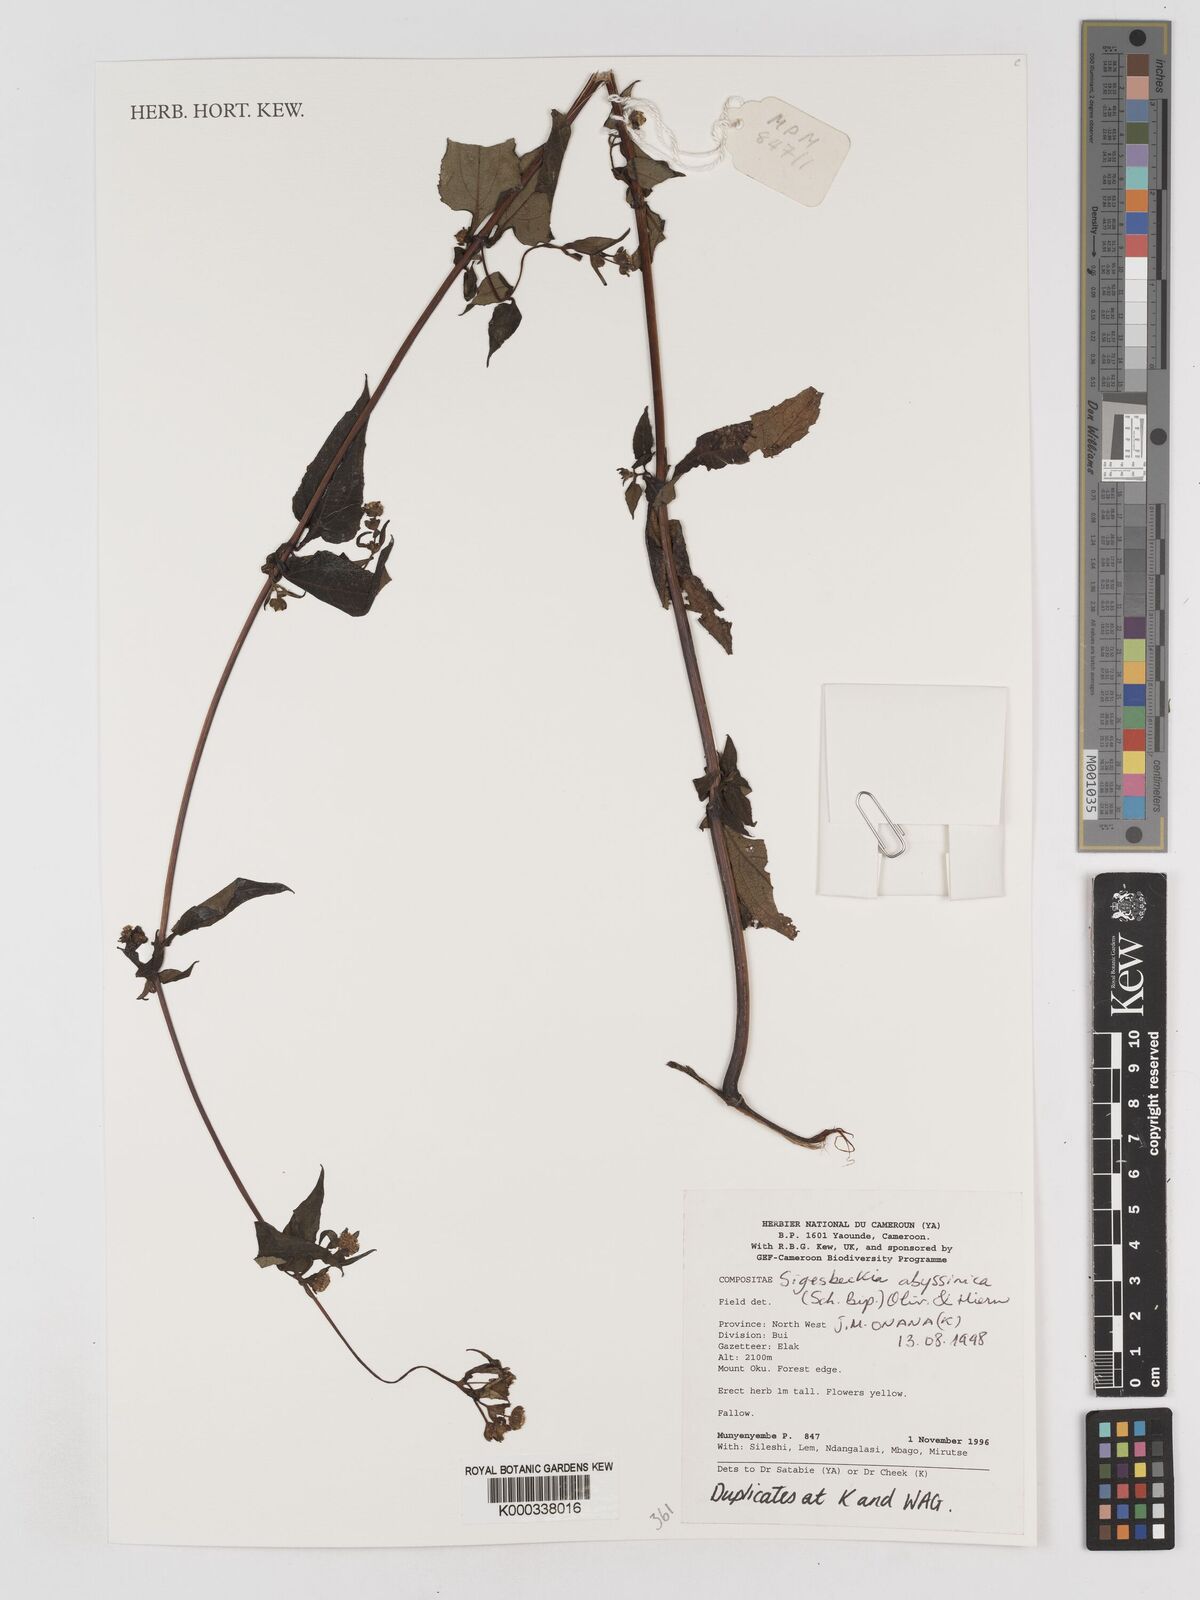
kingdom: Plantae
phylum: Tracheophyta
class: Magnoliopsida
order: Asterales
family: Asteraceae
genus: Micractis
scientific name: Micractis bojeri
